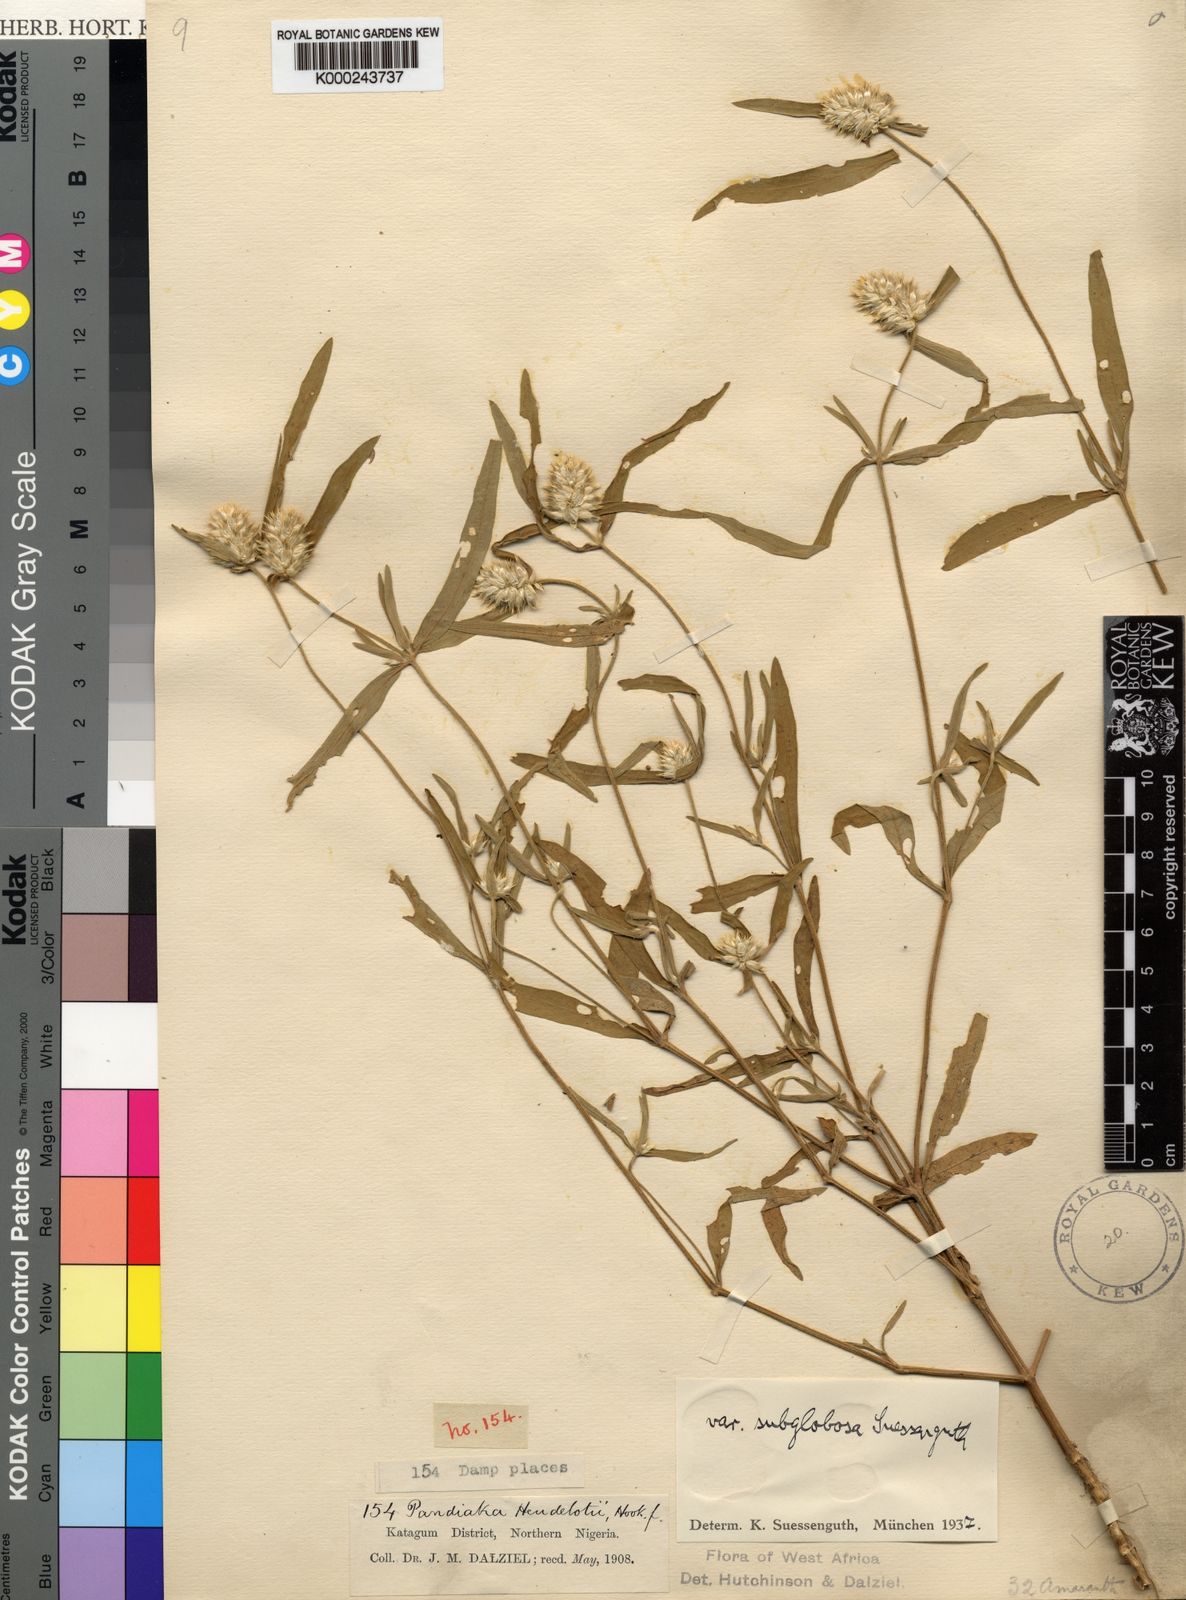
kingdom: Plantae
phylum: Tracheophyta
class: Magnoliopsida
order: Caryophyllales
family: Amaranthaceae
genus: Pandiaka
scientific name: Pandiaka
